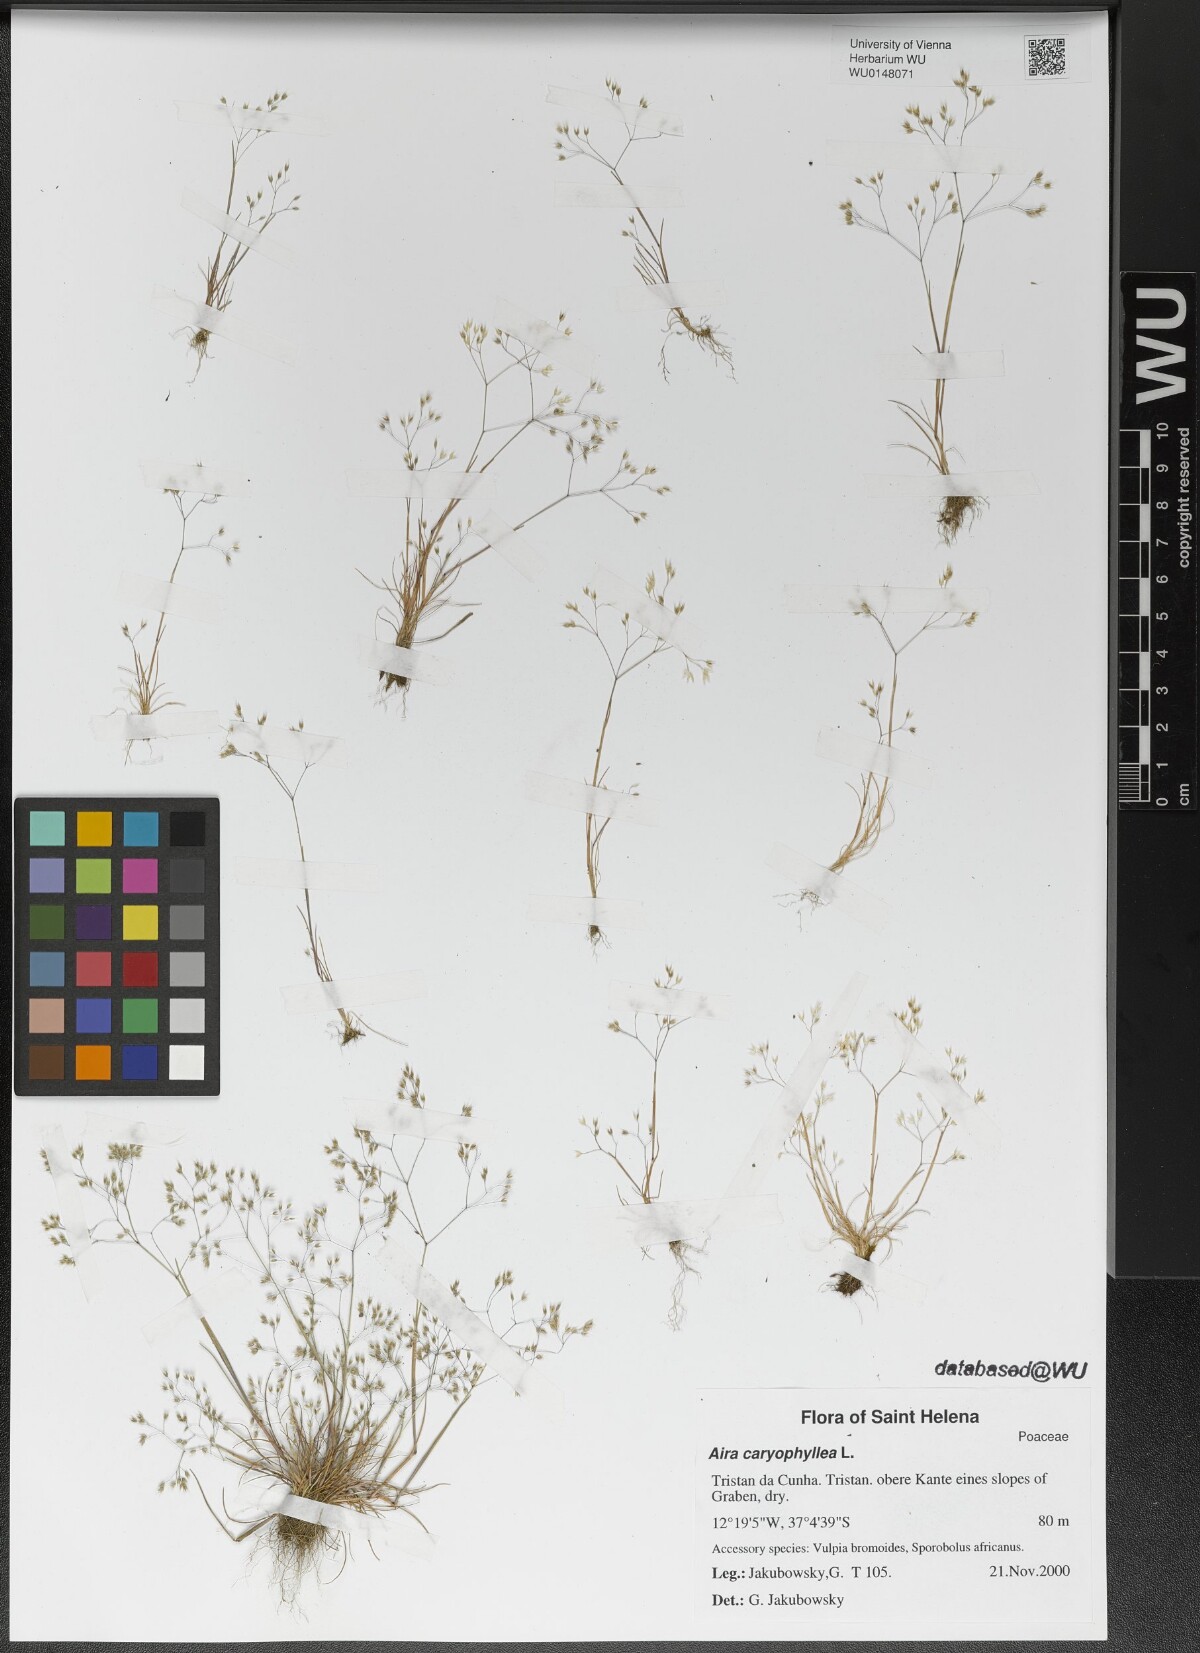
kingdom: Plantae
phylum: Tracheophyta
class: Liliopsida
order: Poales
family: Poaceae
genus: Aira
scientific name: Aira caryophyllea
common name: Silver hairgrass
